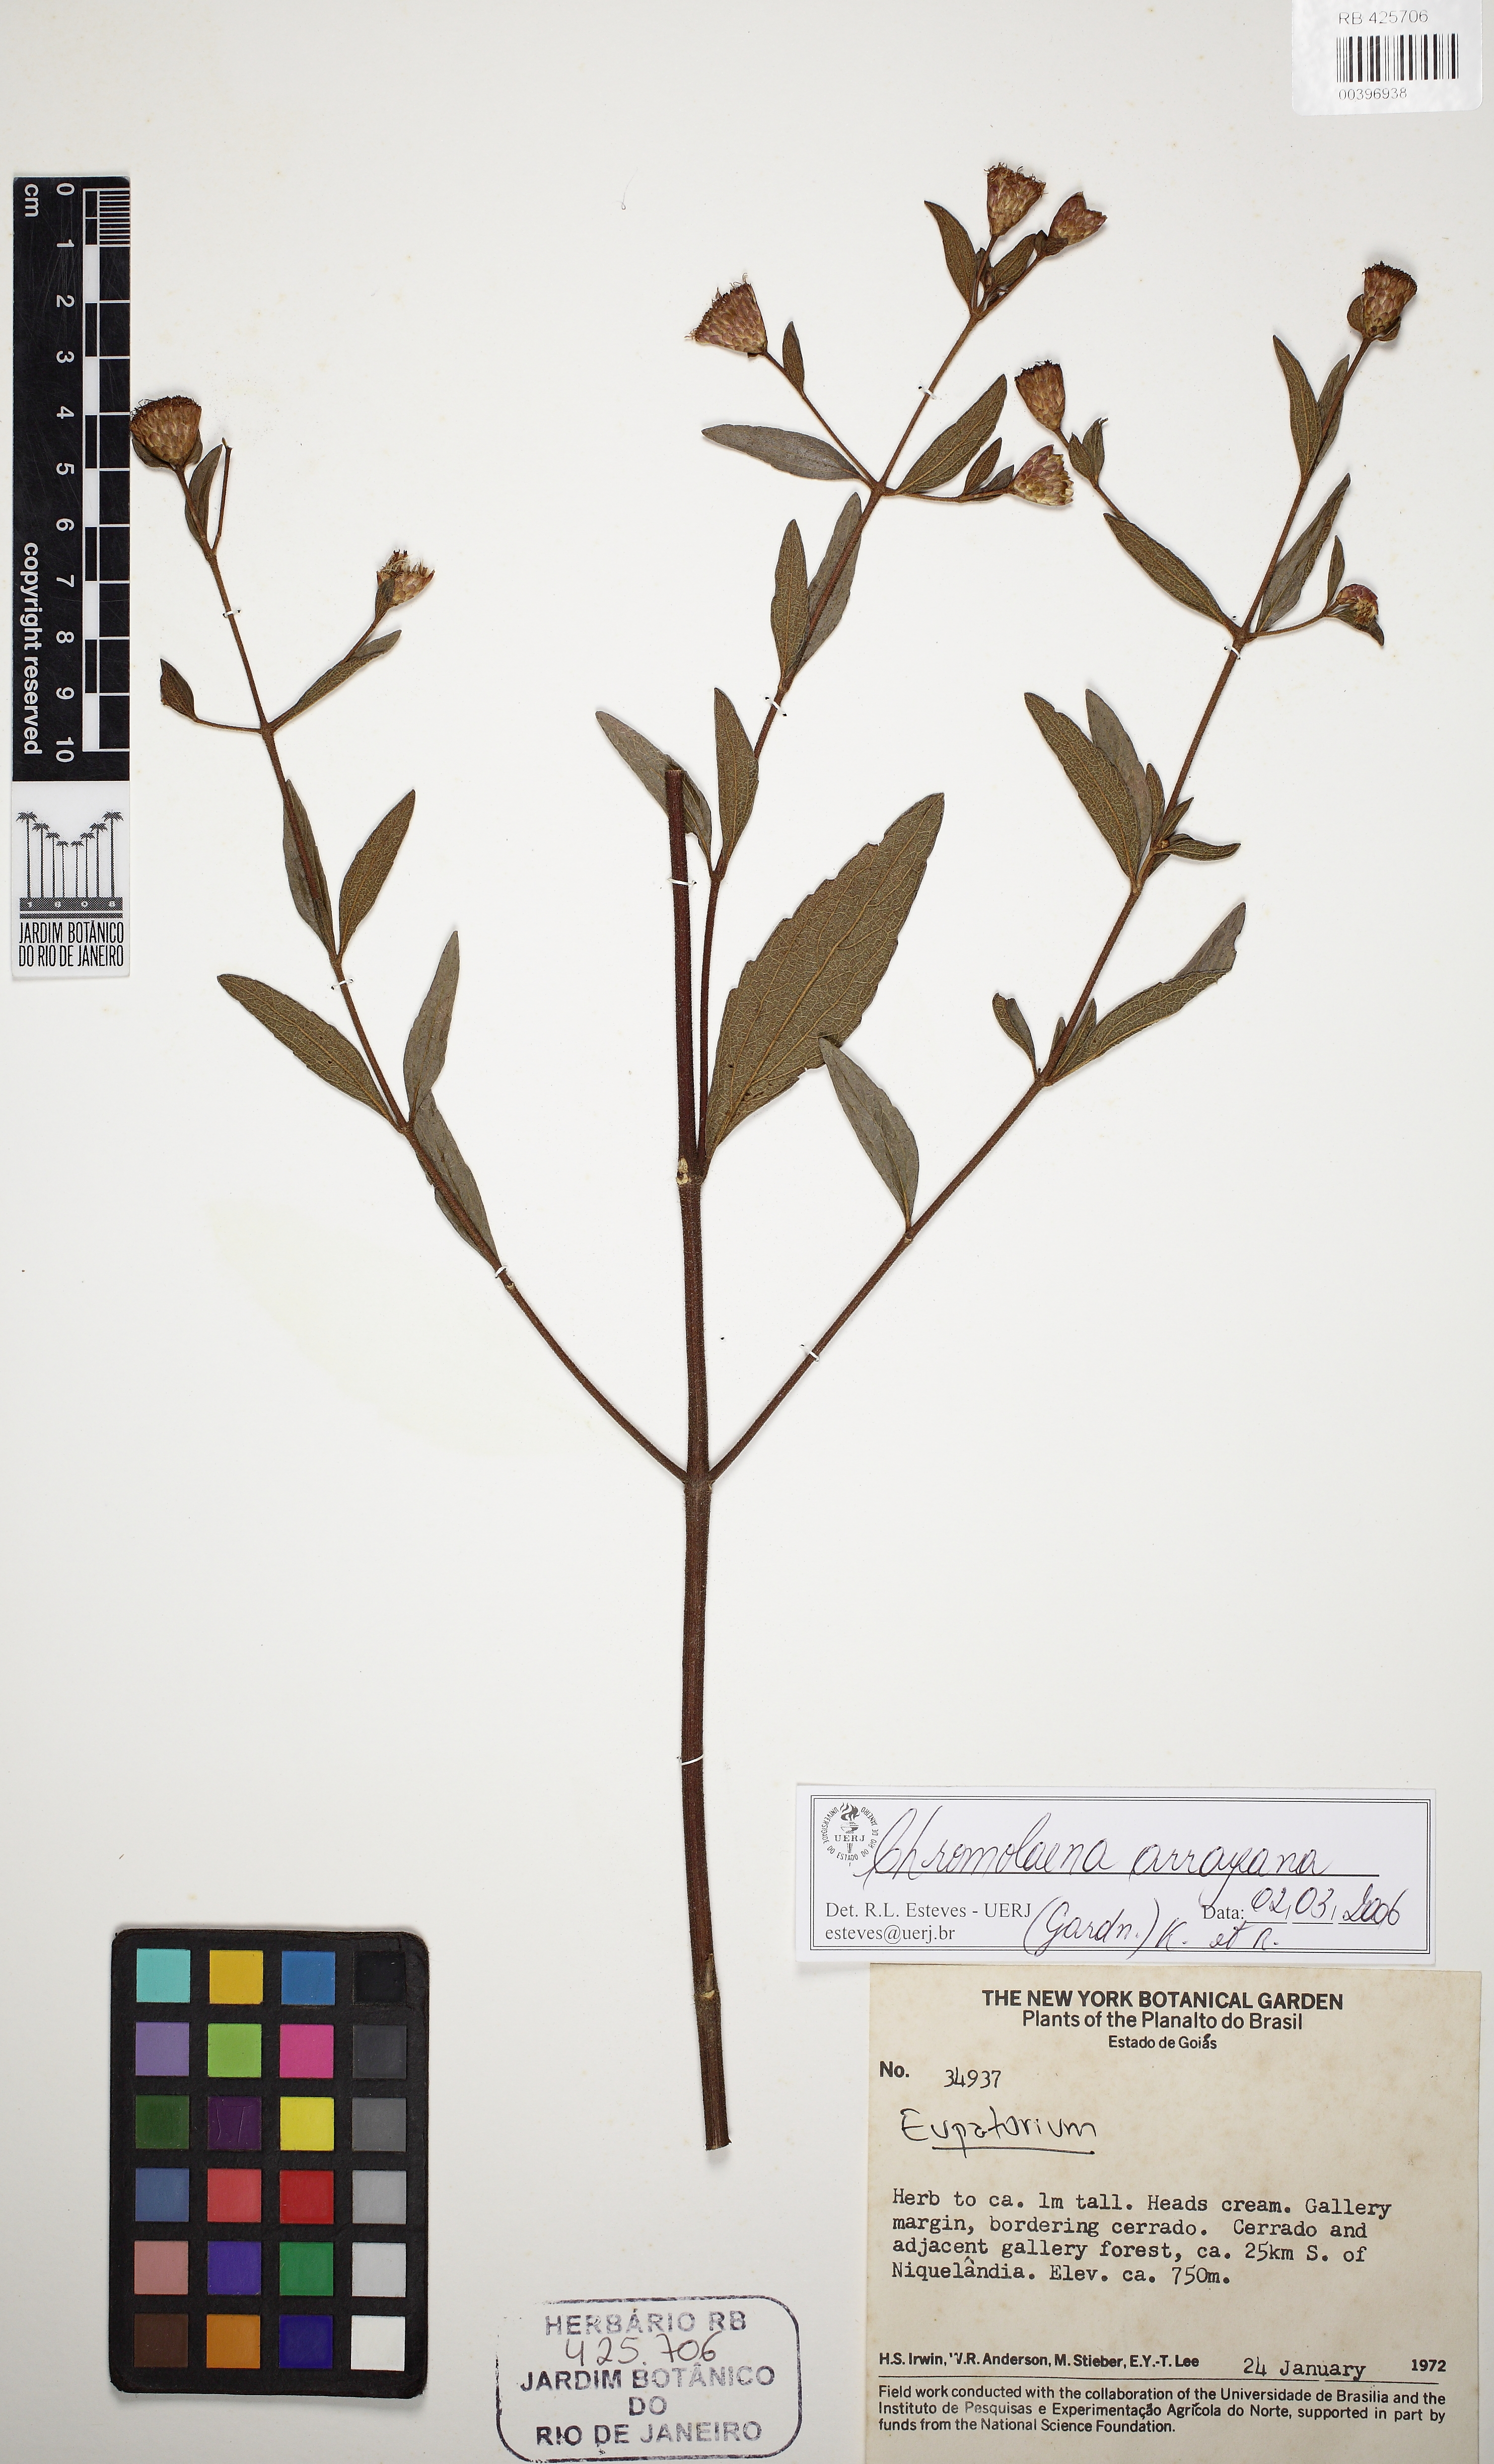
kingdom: Plantae
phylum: Tracheophyta
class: Magnoliopsida
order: Asterales
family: Asteraceae
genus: Chromolaena
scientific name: Chromolaena arrayana
